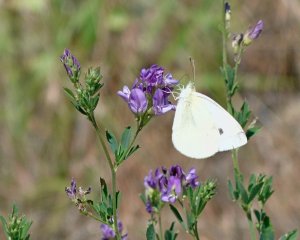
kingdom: Animalia
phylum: Arthropoda
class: Insecta
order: Lepidoptera
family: Pieridae
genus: Pieris
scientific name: Pieris rapae
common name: Cabbage White
